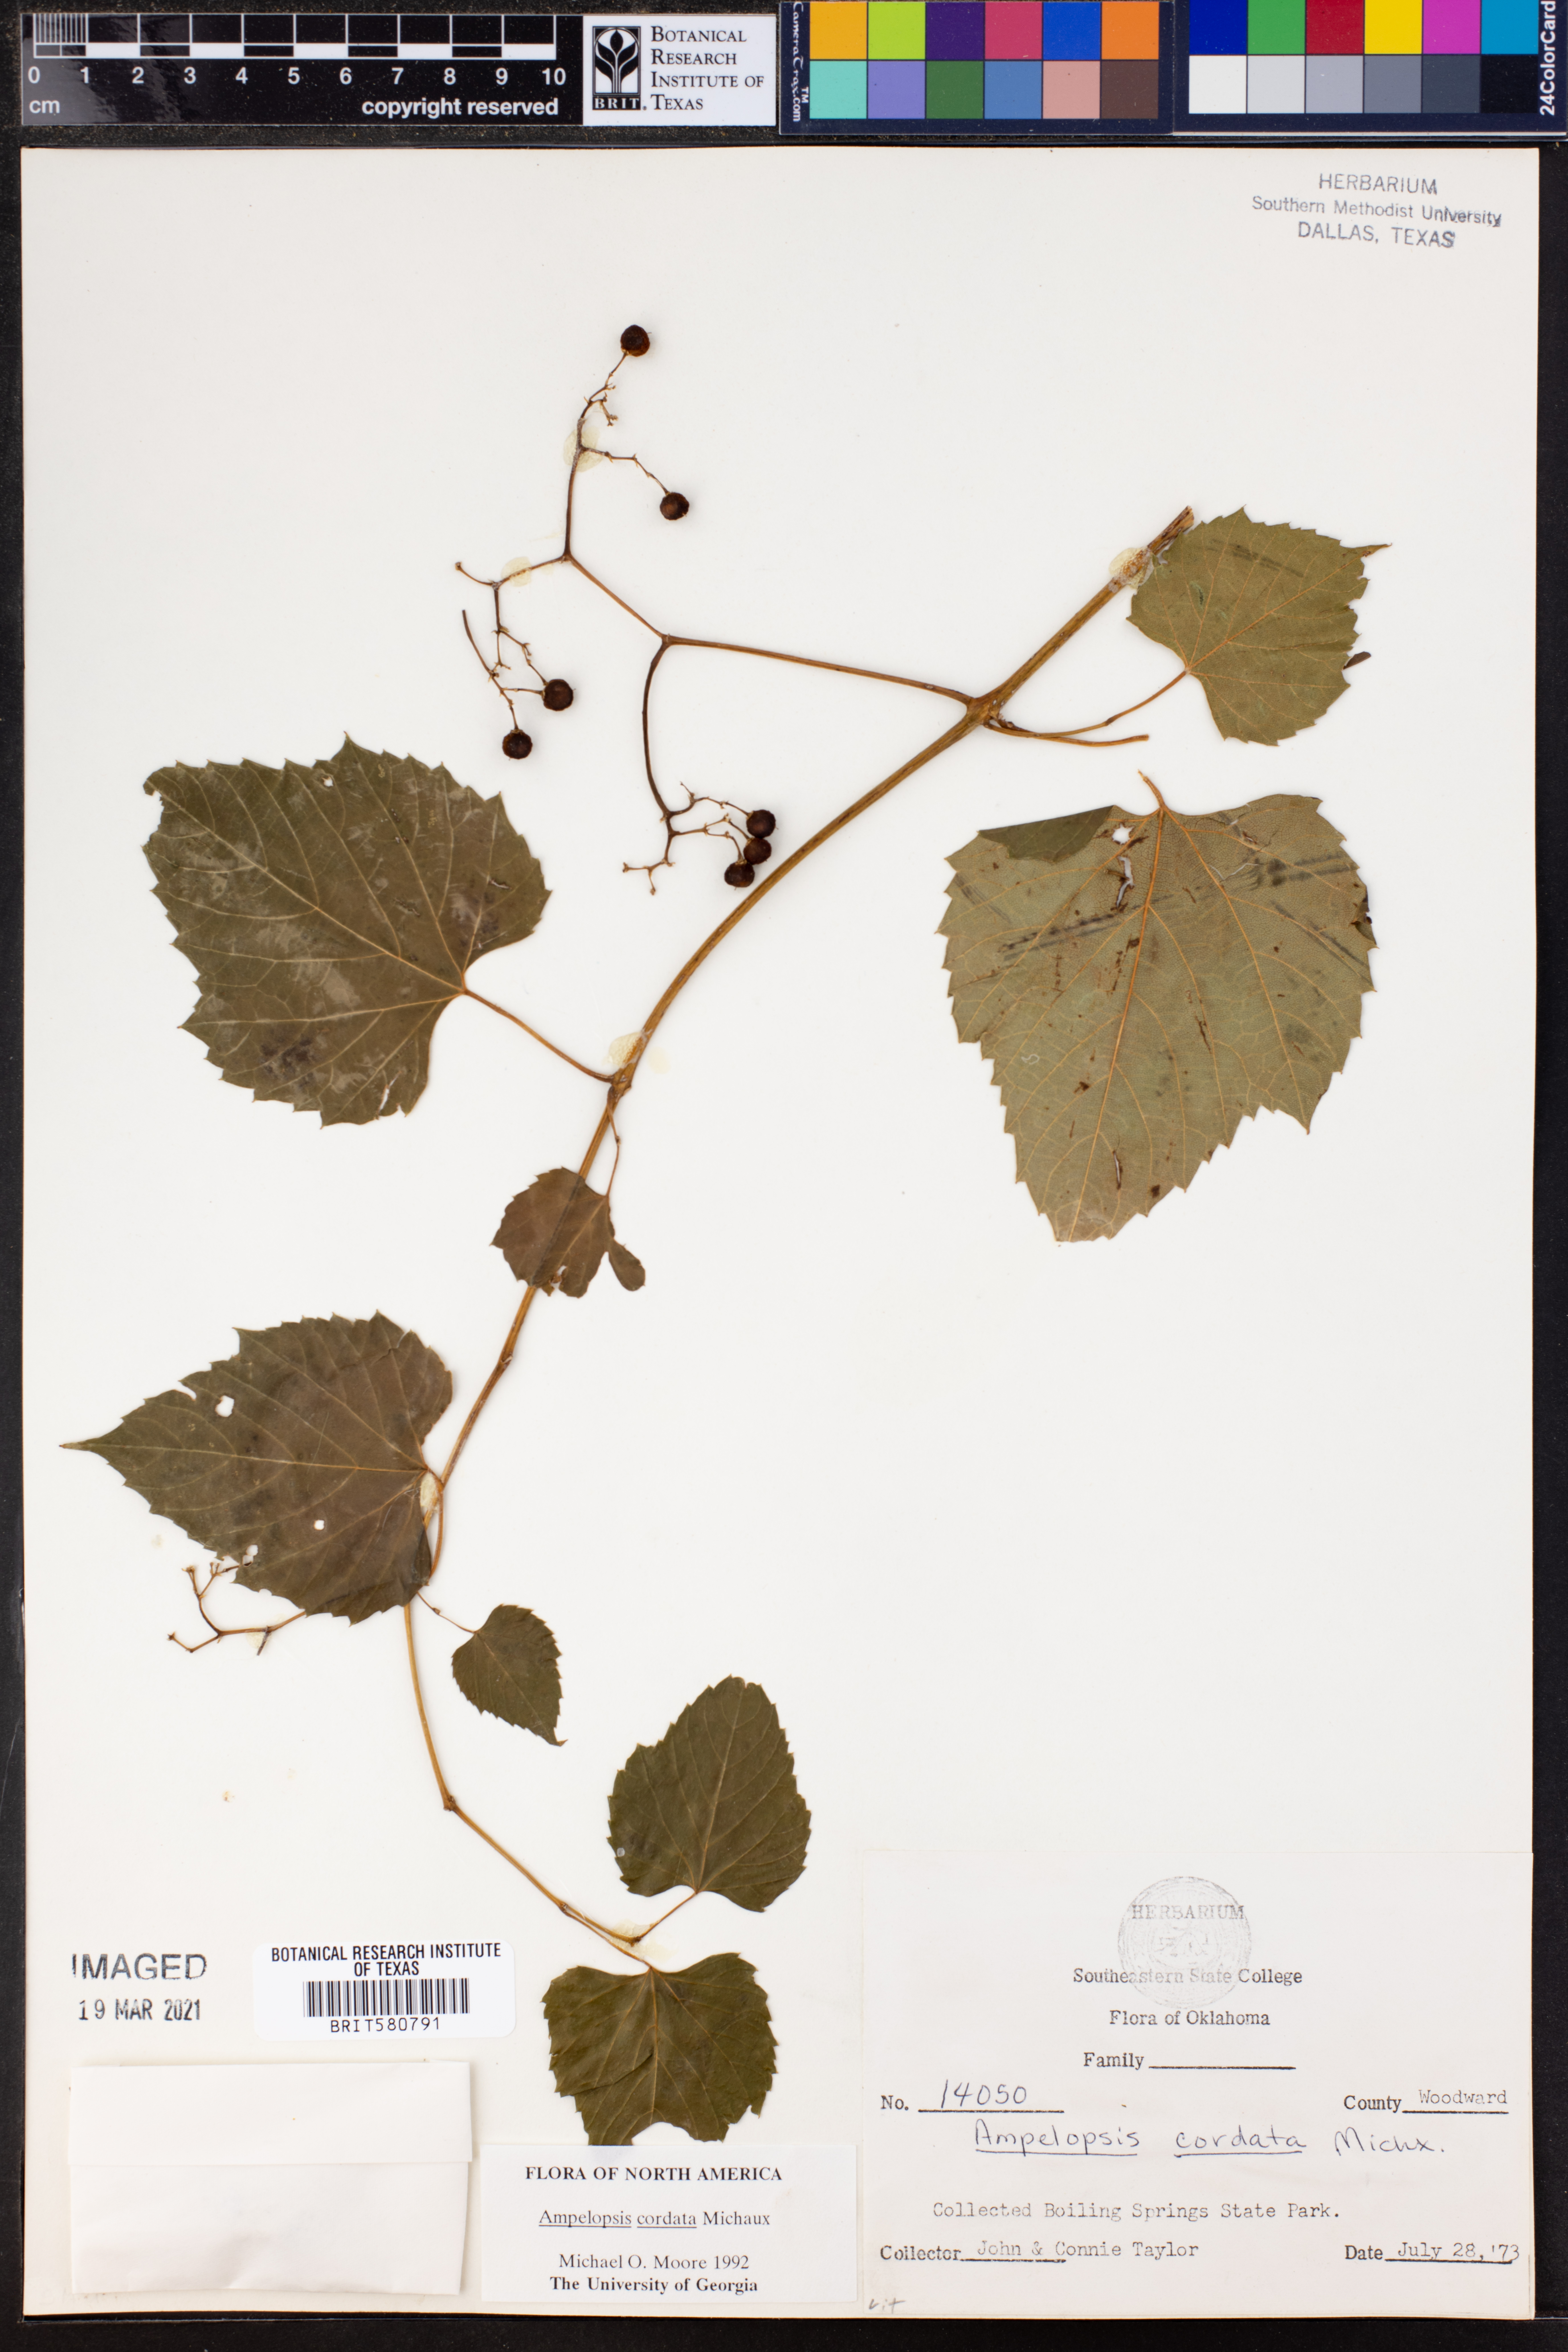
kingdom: Plantae
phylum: Tracheophyta
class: Magnoliopsida
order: Vitales
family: Vitaceae
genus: Ampelopsis
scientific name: Ampelopsis cordata
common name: Heart-leaf ampelopsis
